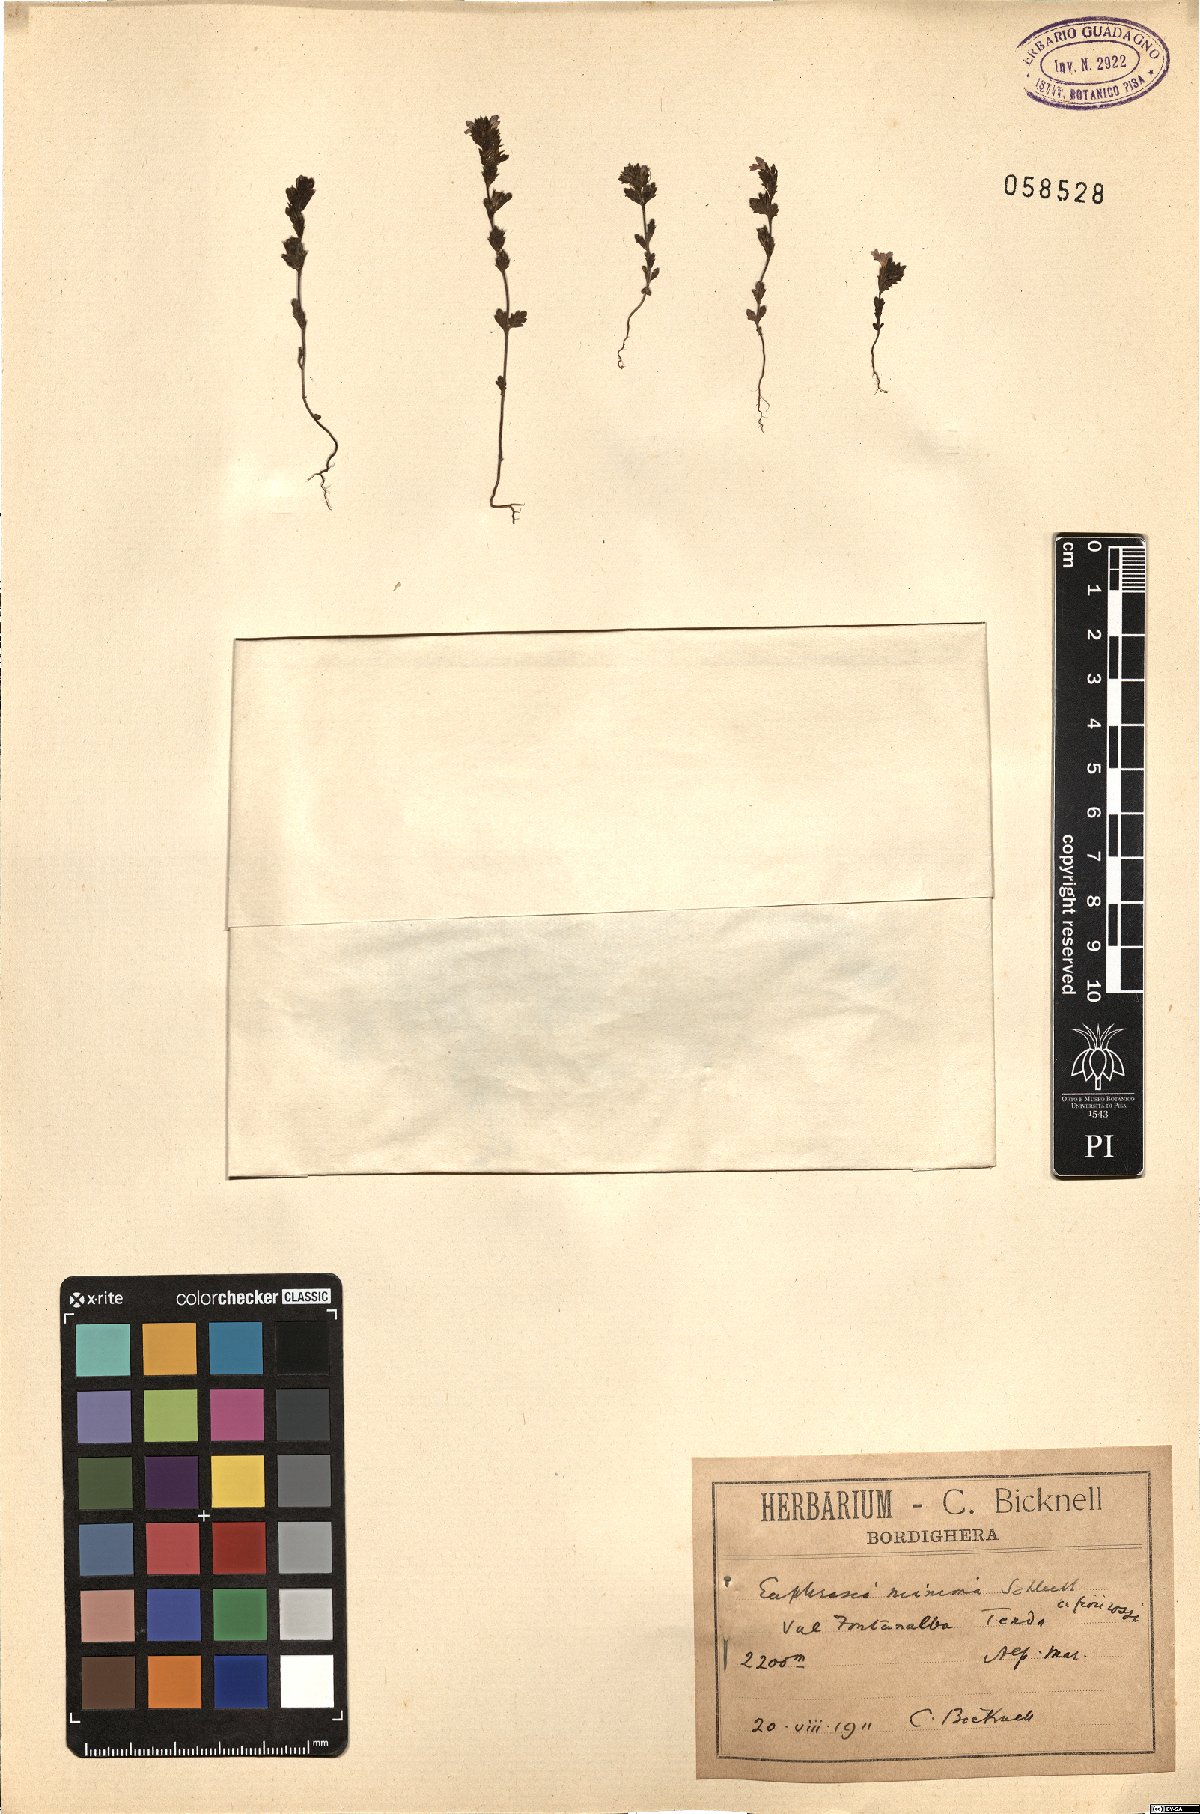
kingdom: Plantae
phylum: Tracheophyta
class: Magnoliopsida
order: Lamiales
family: Orobanchaceae
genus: Euphrasia
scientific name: Euphrasia minima
